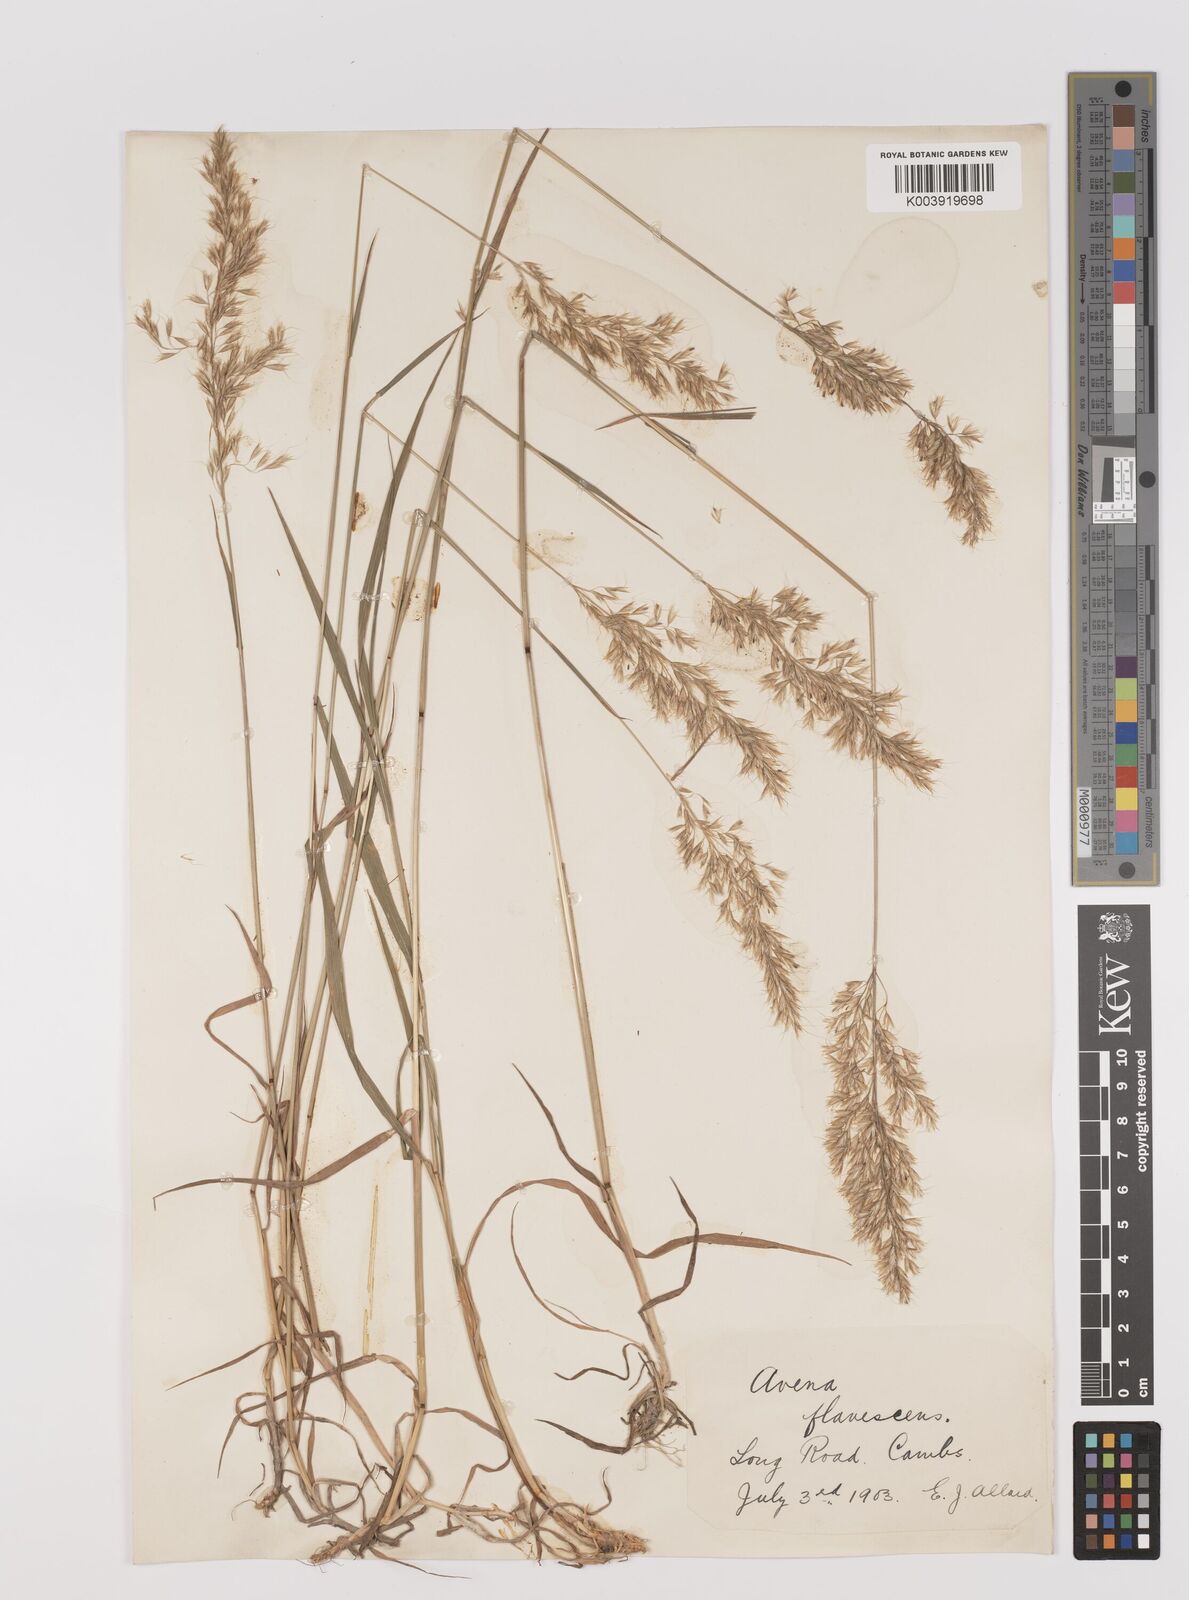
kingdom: Plantae
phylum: Tracheophyta
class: Liliopsida
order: Poales
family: Poaceae
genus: Trisetum
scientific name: Trisetum flavescens
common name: Yellow oat-grass
